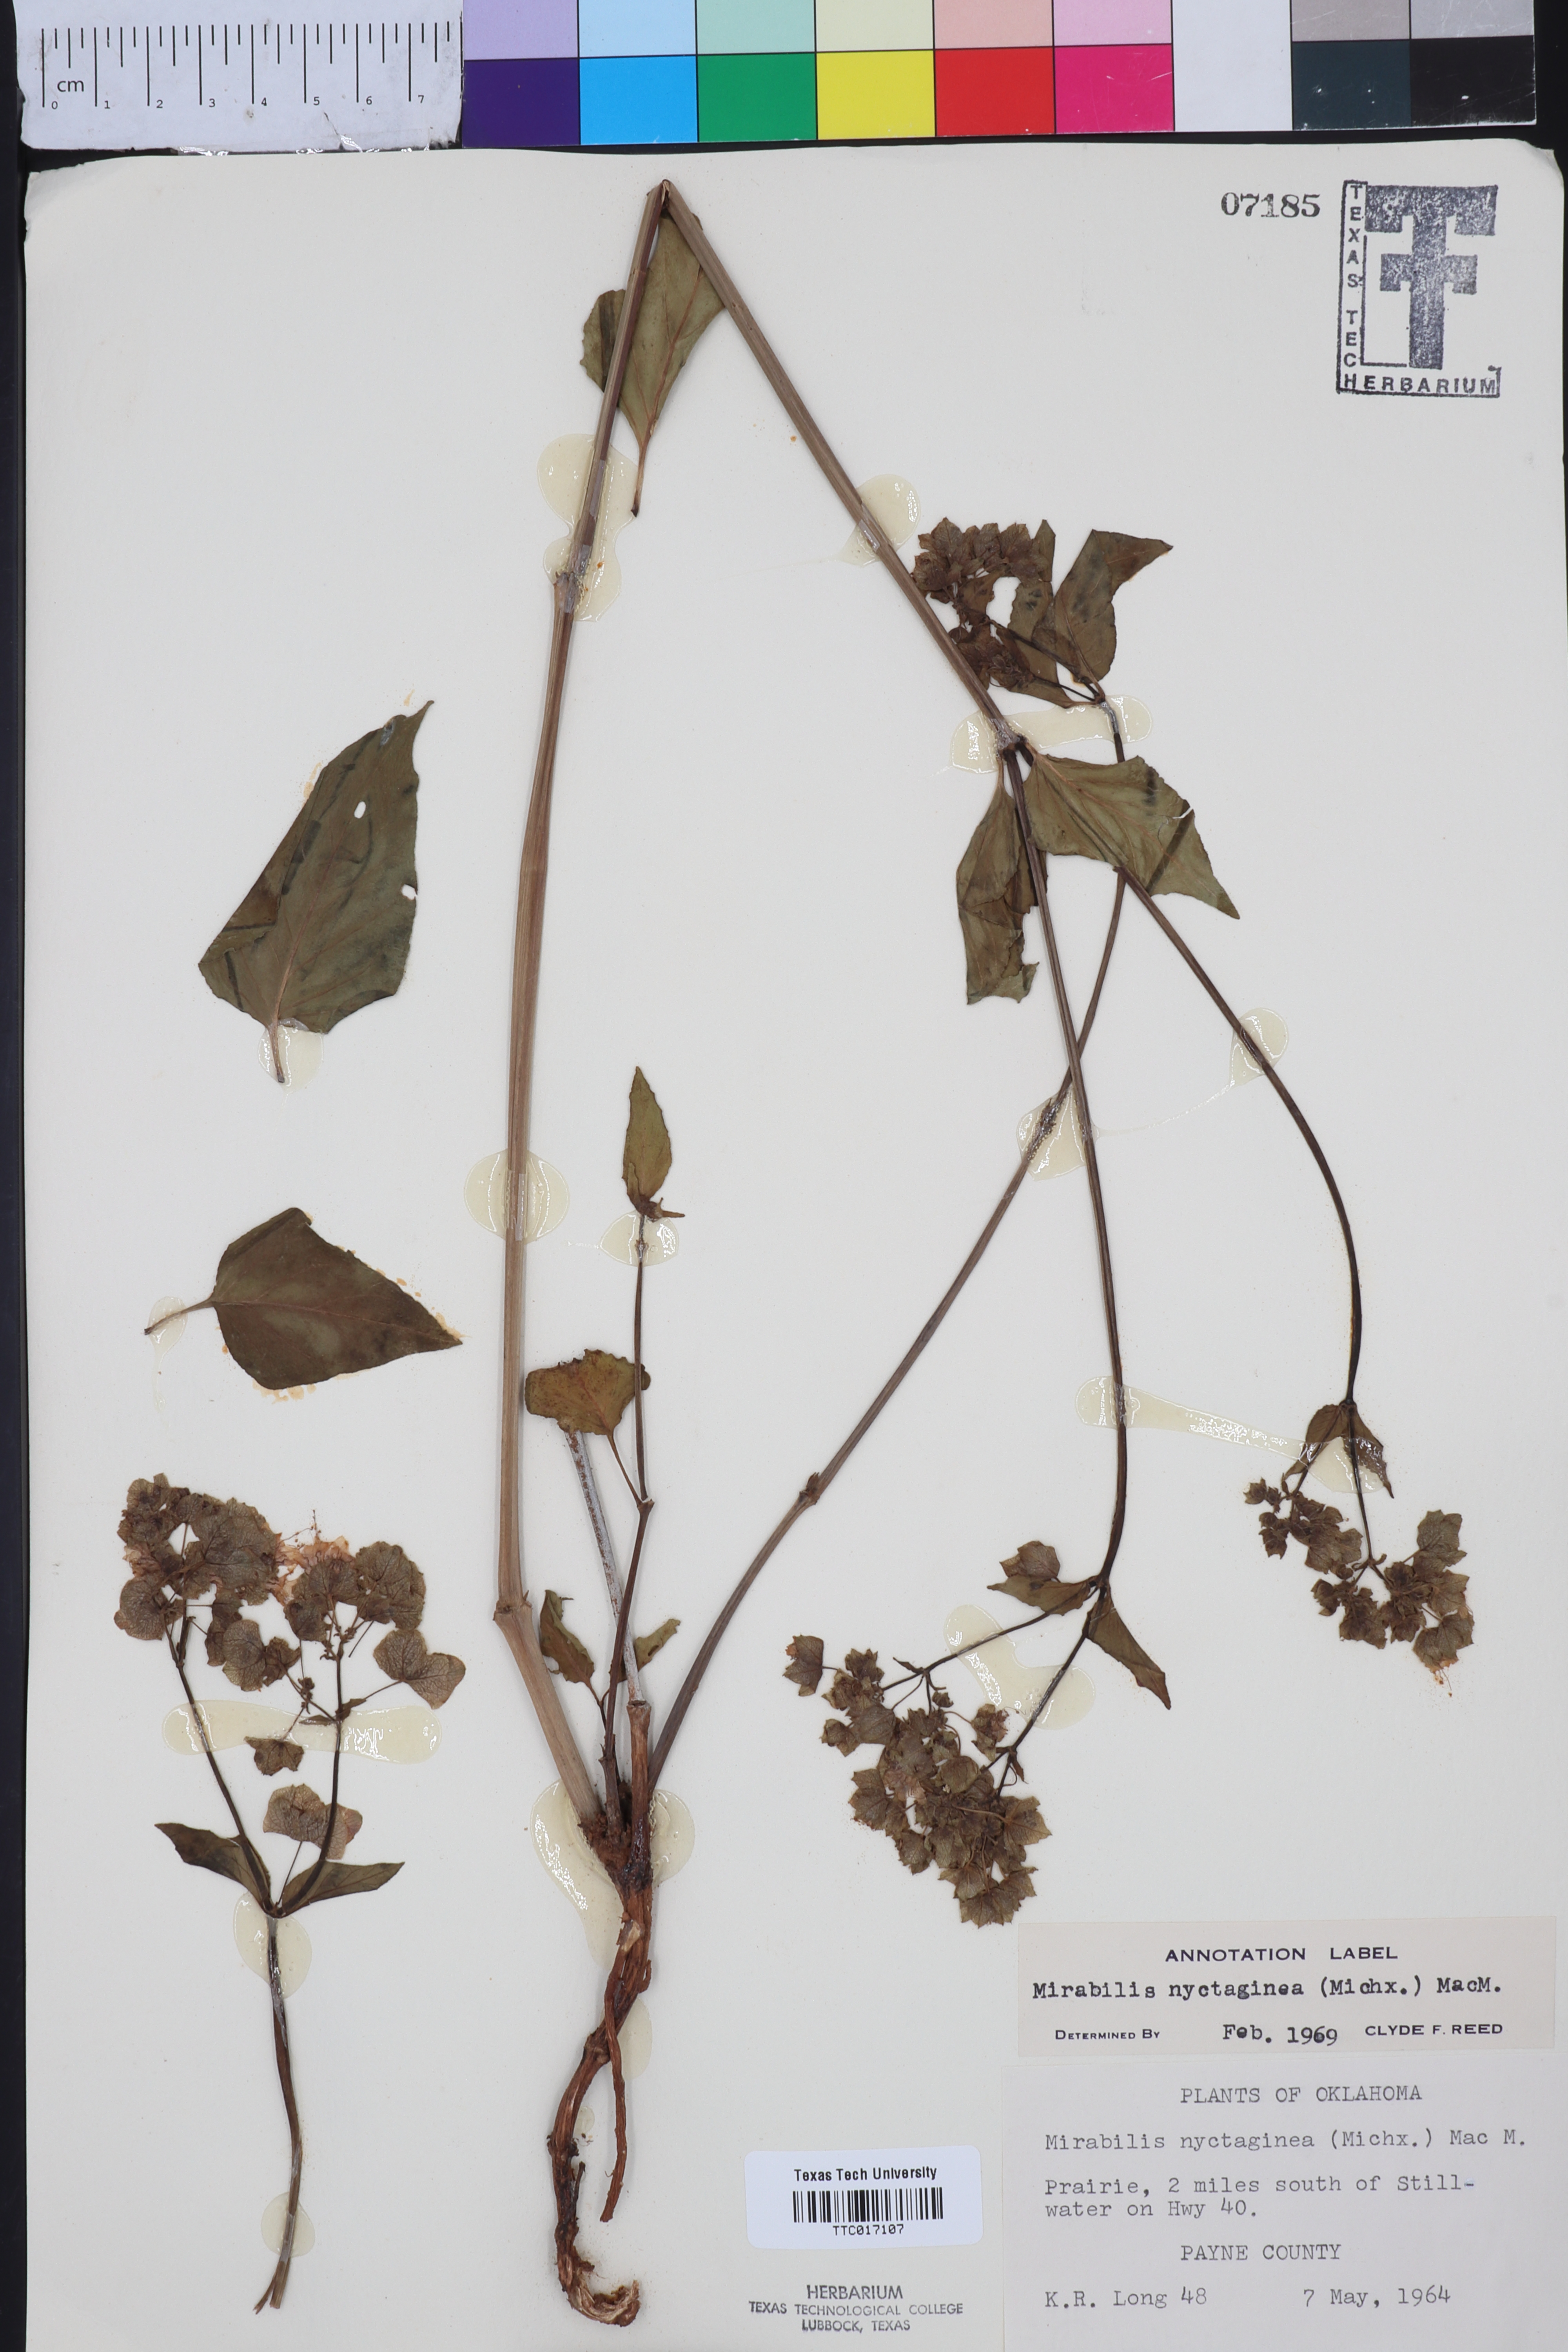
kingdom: Plantae
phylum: Tracheophyta
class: Magnoliopsida
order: Caryophyllales
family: Nyctaginaceae
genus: Mirabilis
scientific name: Mirabilis nyctaginea
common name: Umbrella wort
